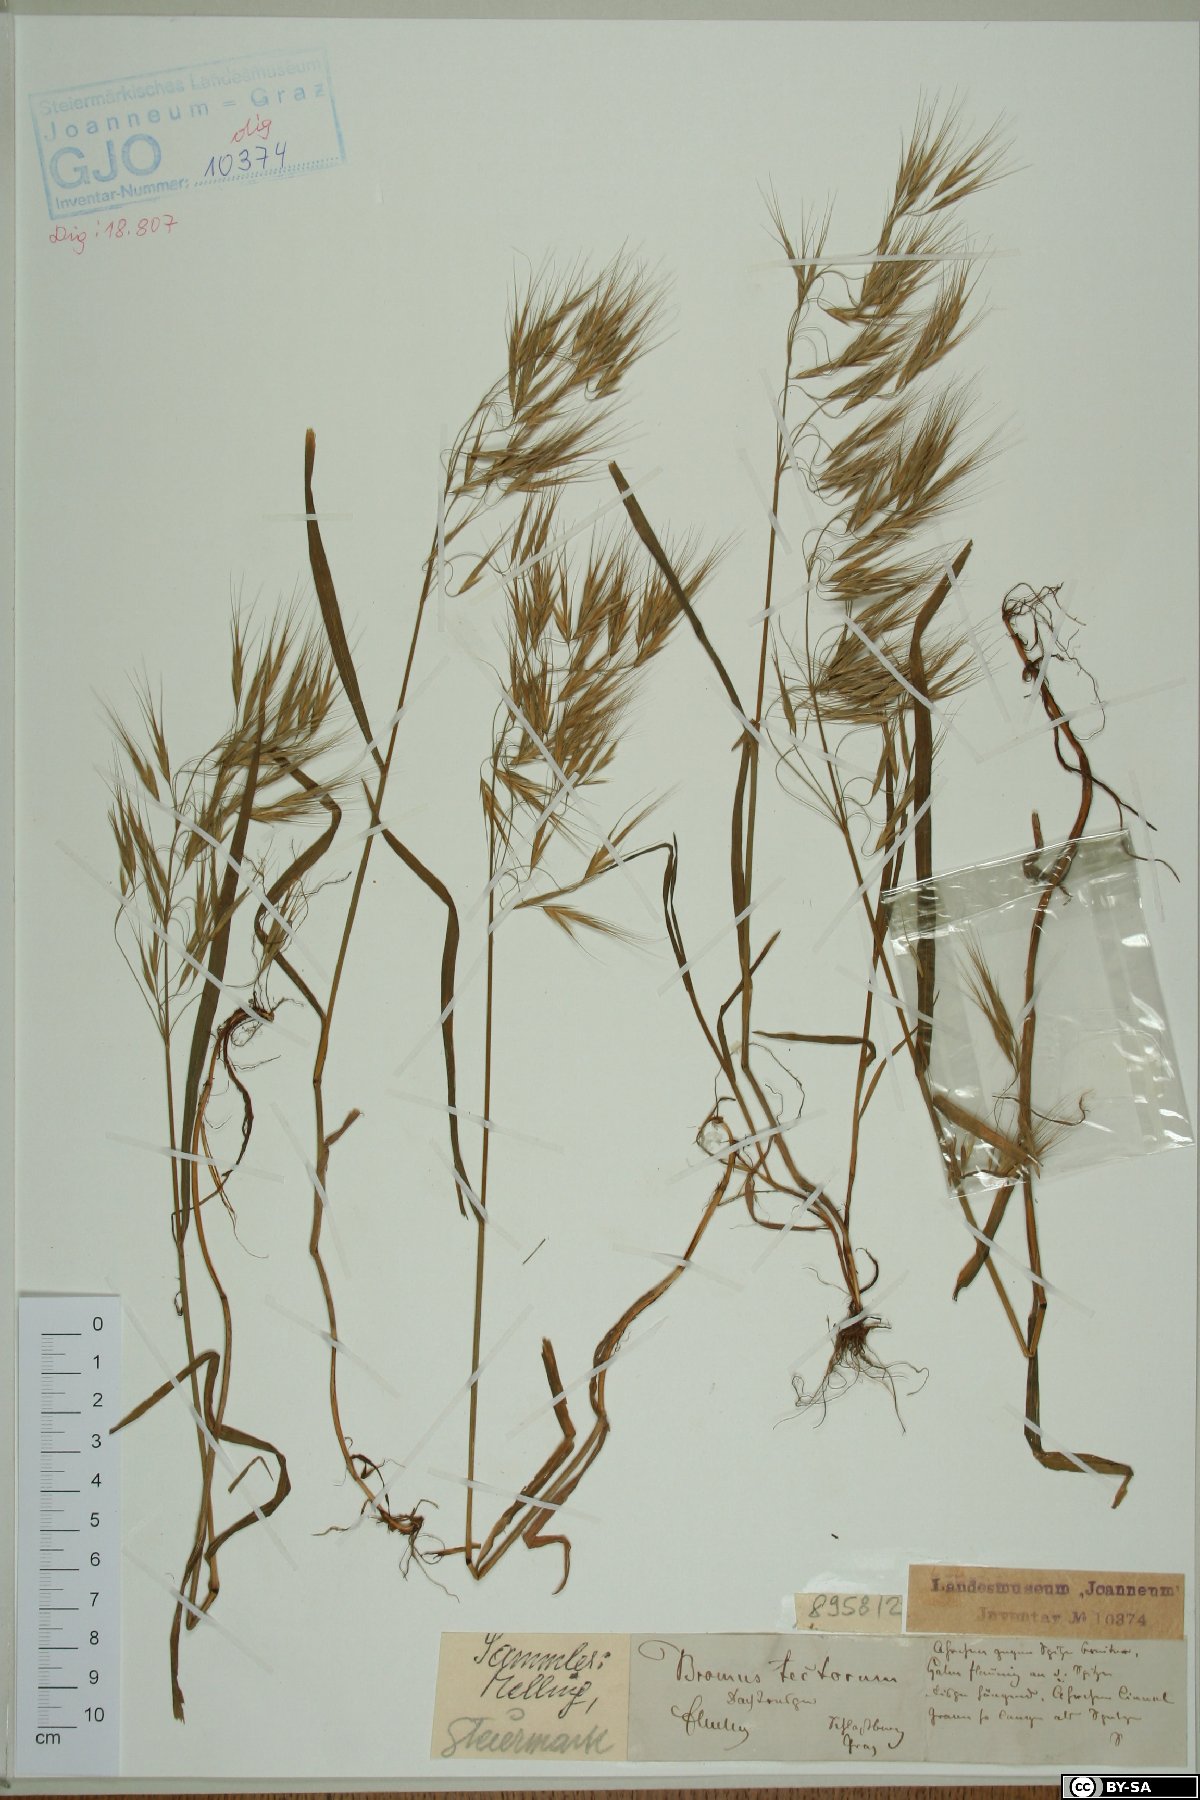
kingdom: Plantae
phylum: Tracheophyta
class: Liliopsida
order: Poales
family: Poaceae
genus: Bromus
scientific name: Bromus tectorum
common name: Cheatgrass
